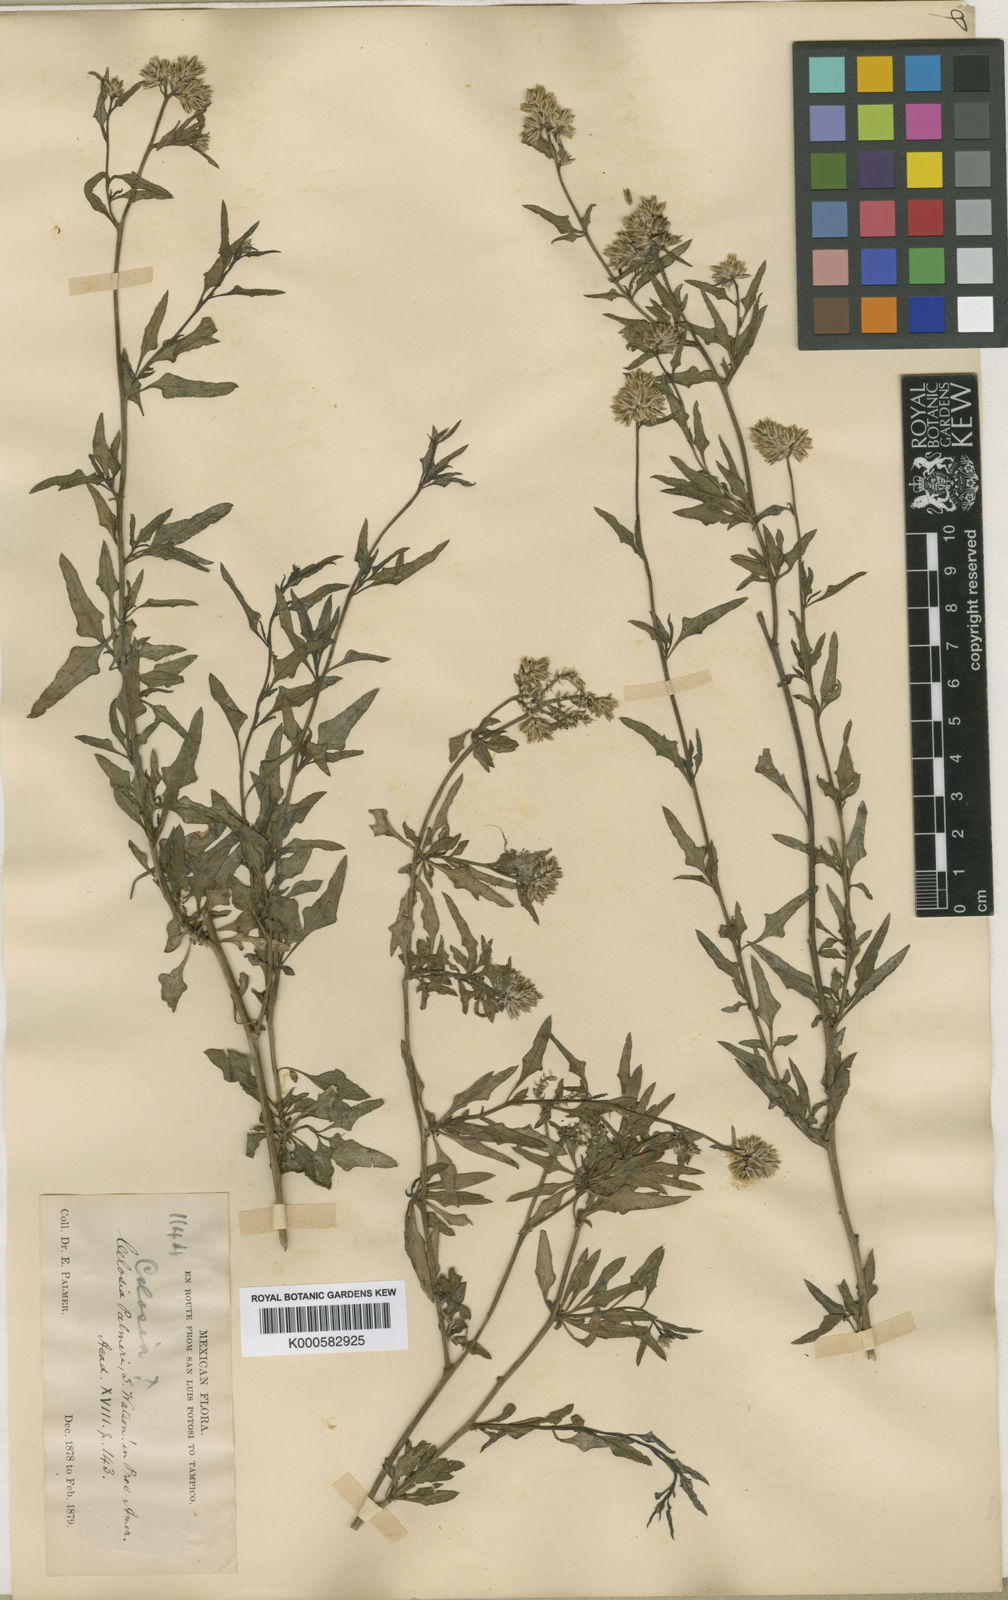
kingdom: Plantae
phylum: Tracheophyta
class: Magnoliopsida
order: Caryophyllales
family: Amaranthaceae
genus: Celosia
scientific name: Celosia palmeri
